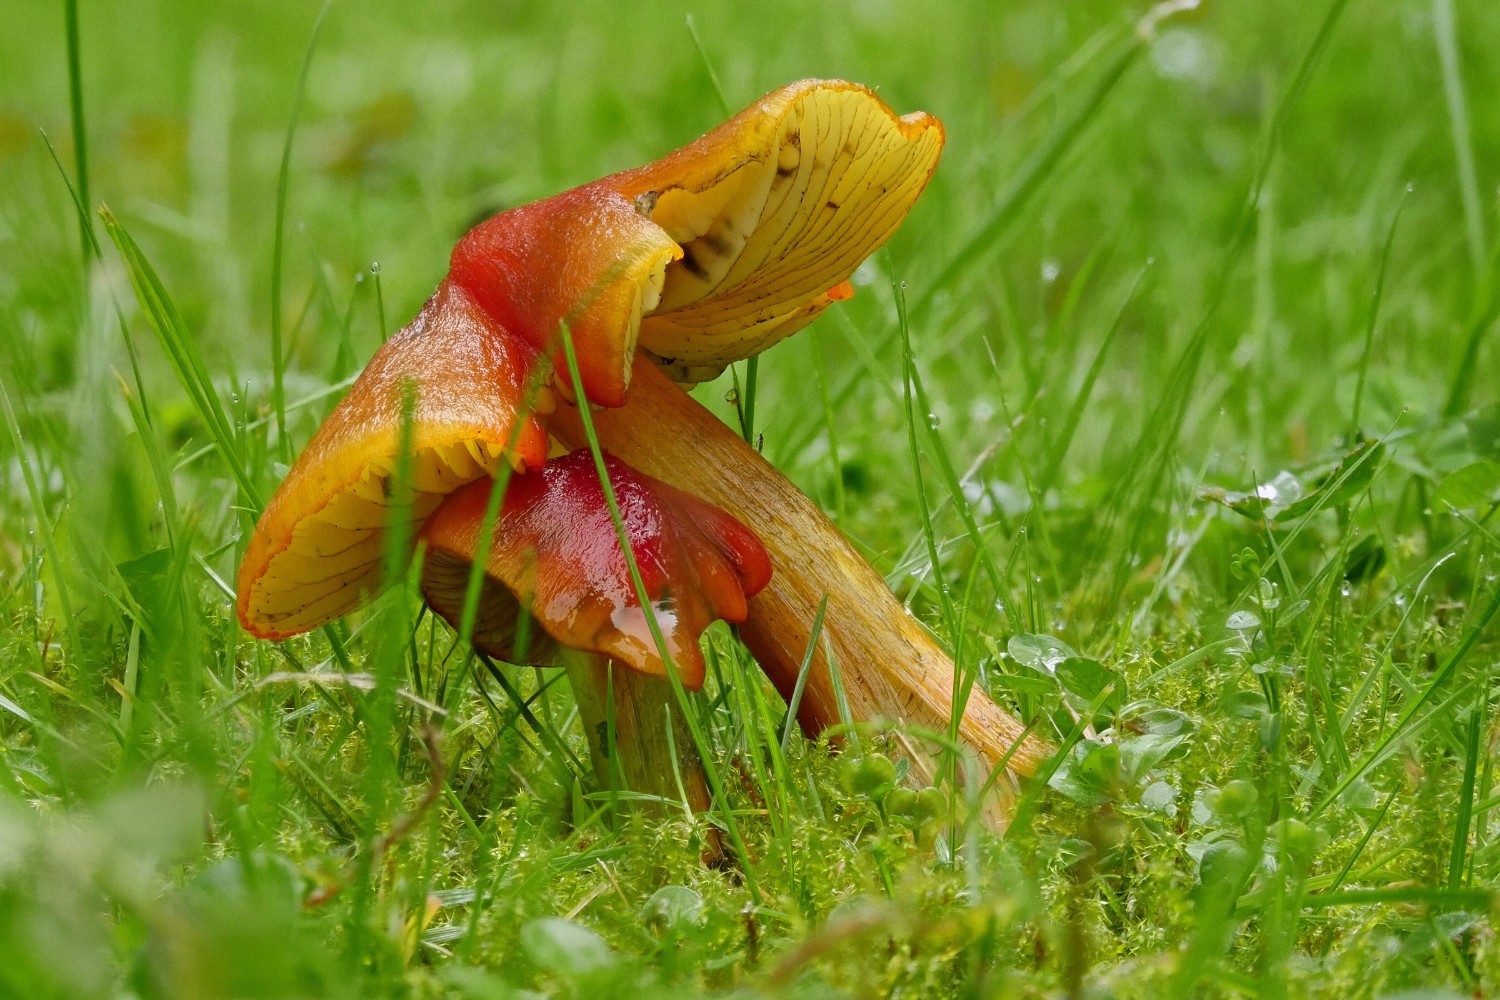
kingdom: Fungi
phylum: Basidiomycota
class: Agaricomycetes
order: Agaricales
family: Hygrophoraceae
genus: Hygrocybe
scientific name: Hygrocybe conica
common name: kegle-vokshat
